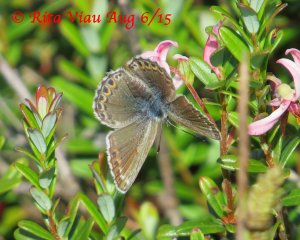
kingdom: Animalia
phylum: Arthropoda
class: Insecta
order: Lepidoptera
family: Lycaenidae
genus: Lycaeides
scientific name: Lycaeides idas
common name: Northern Blue
